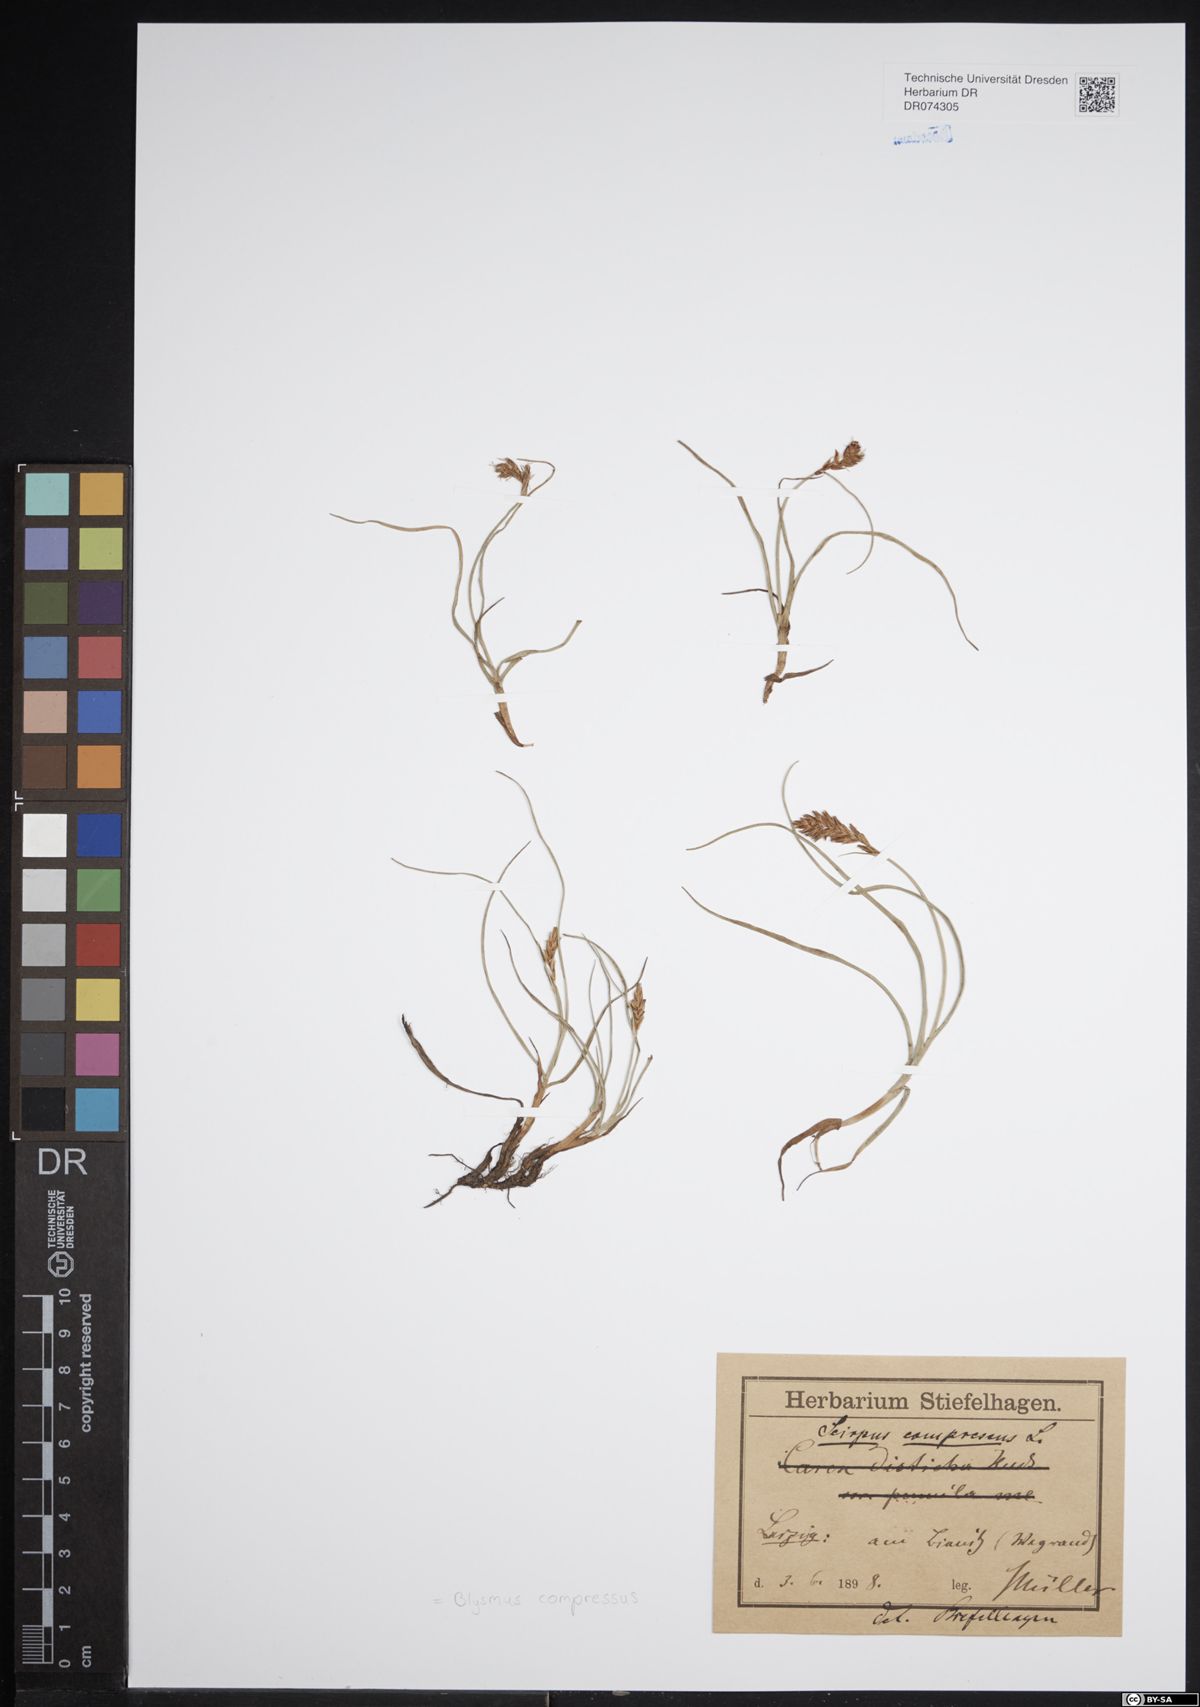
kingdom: Plantae
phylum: Tracheophyta
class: Liliopsida
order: Poales
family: Cyperaceae
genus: Blysmus
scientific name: Blysmus compressus
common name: Flat-sedge
